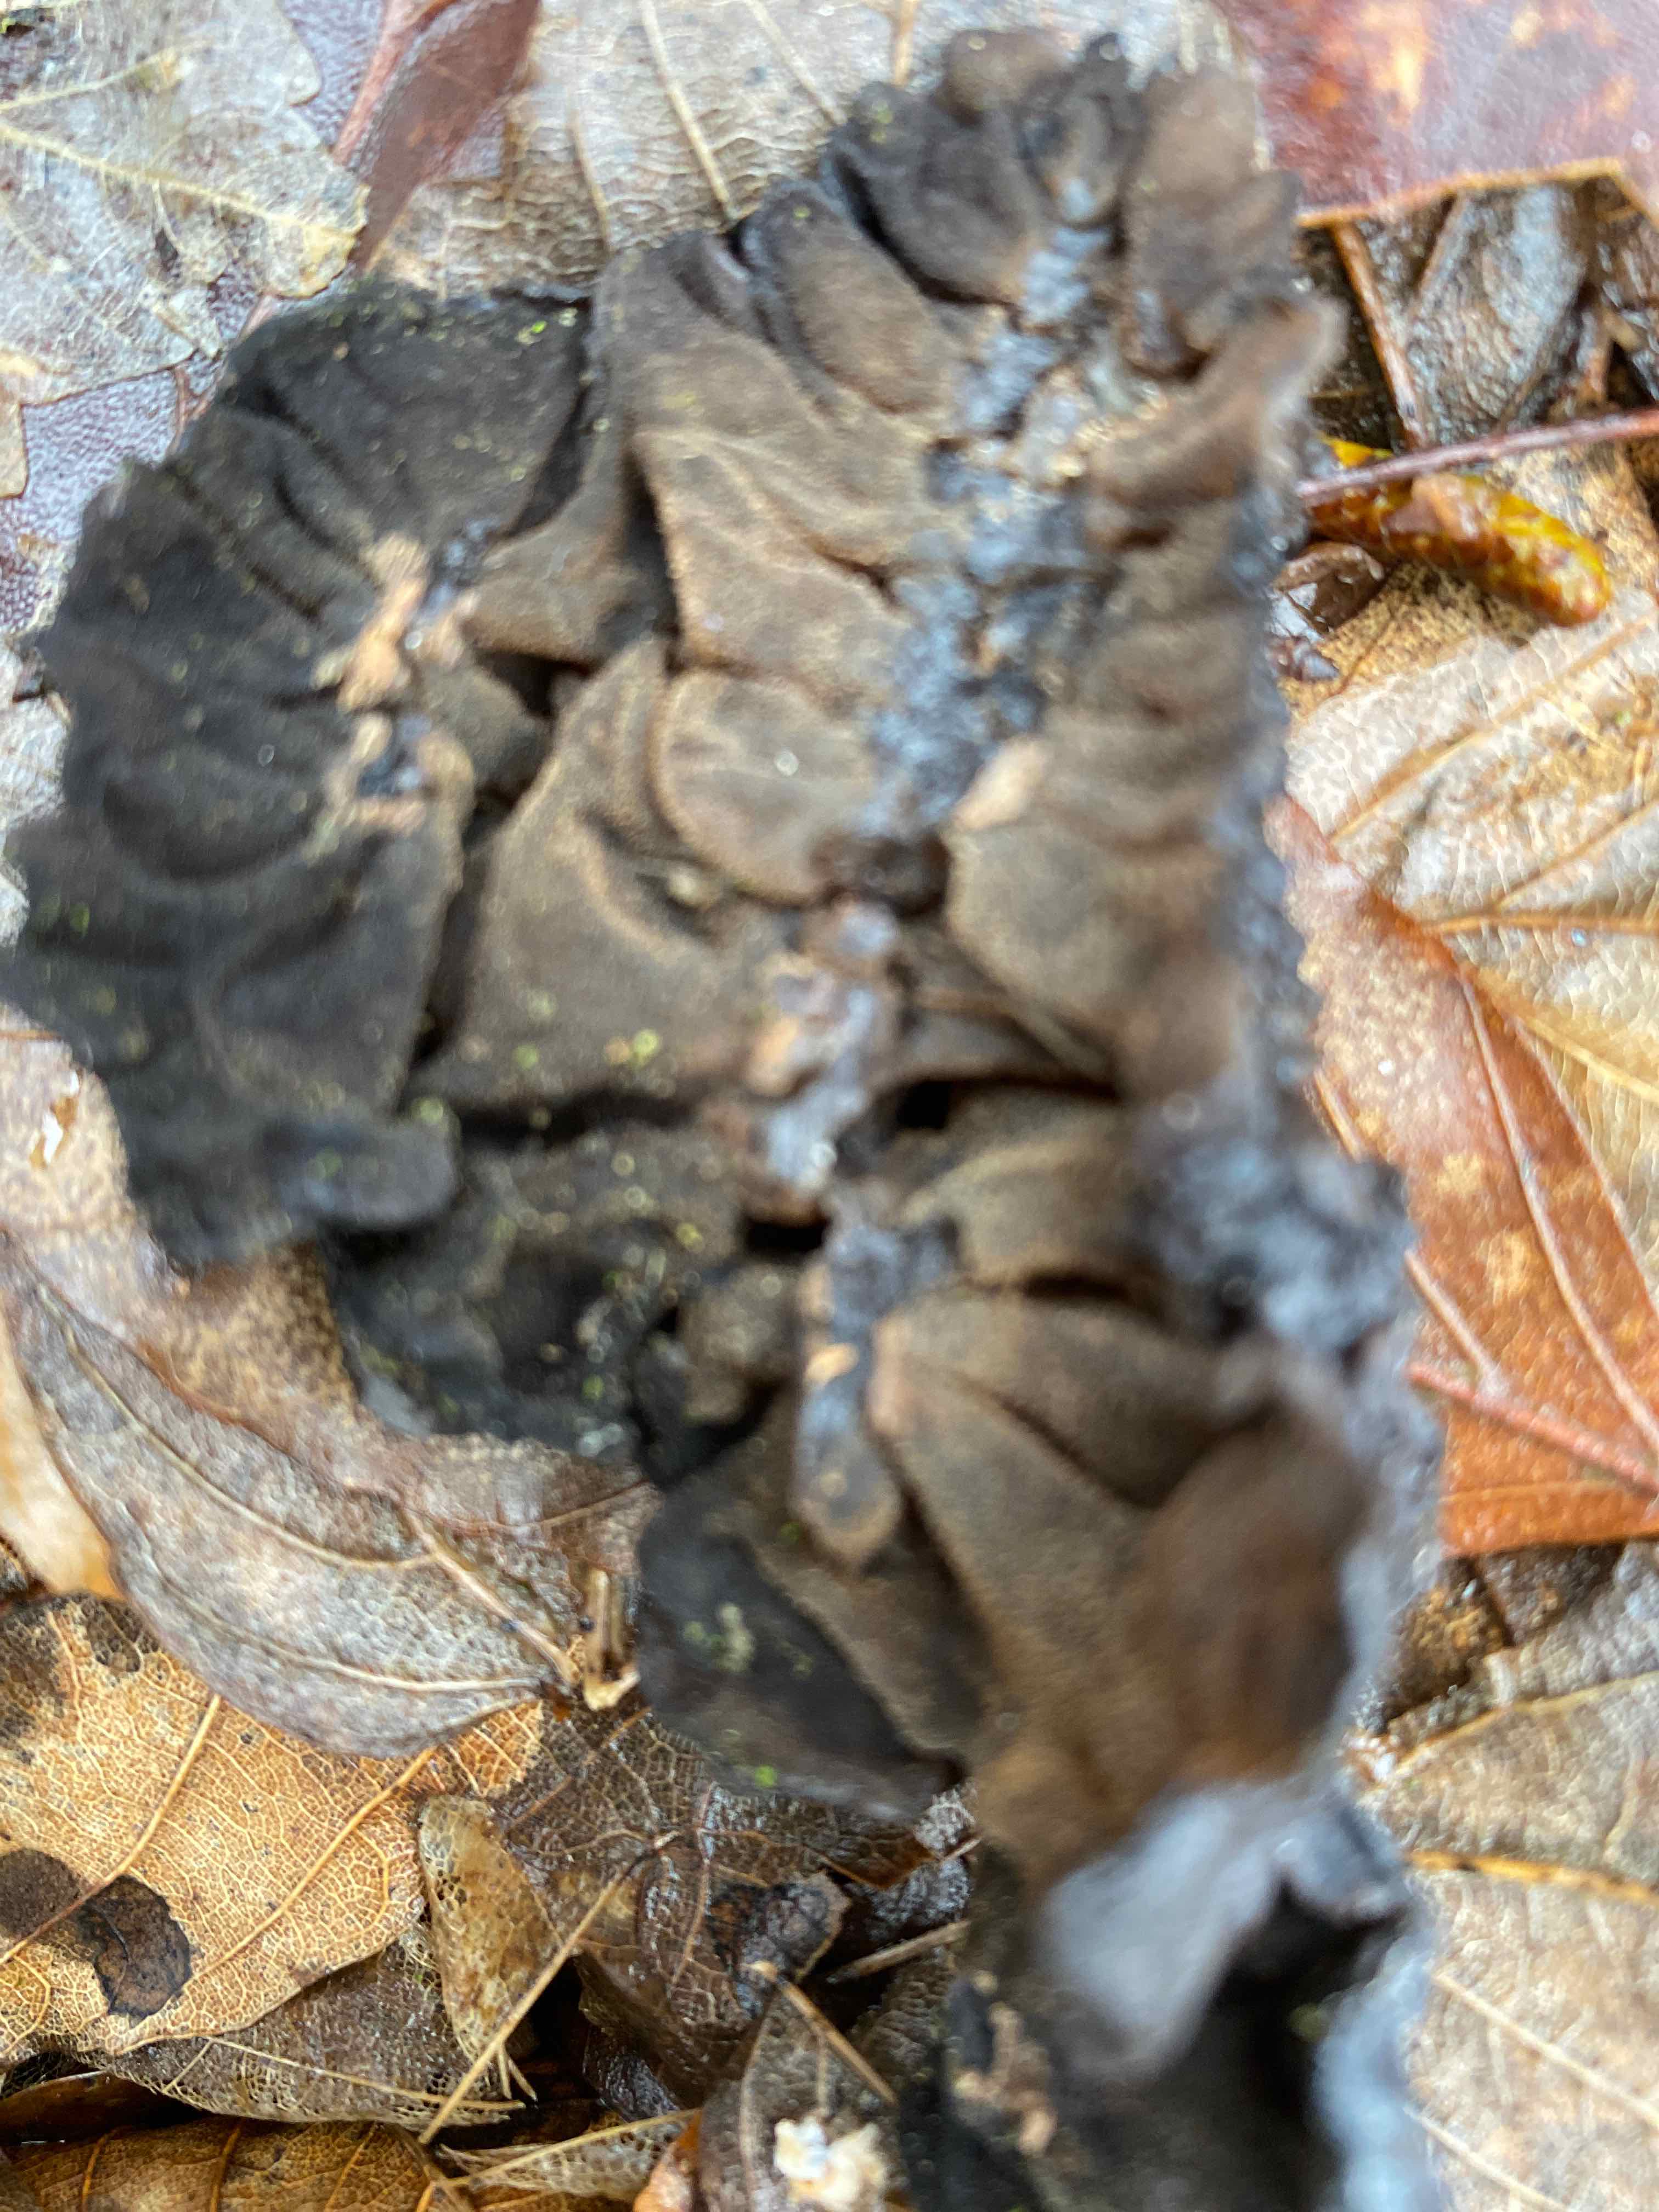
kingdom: Fungi
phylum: Basidiomycota
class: Agaricomycetes
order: Auriculariales
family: Auriculariaceae
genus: Exidia
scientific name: Exidia glandulosa
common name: ege-bævretop
